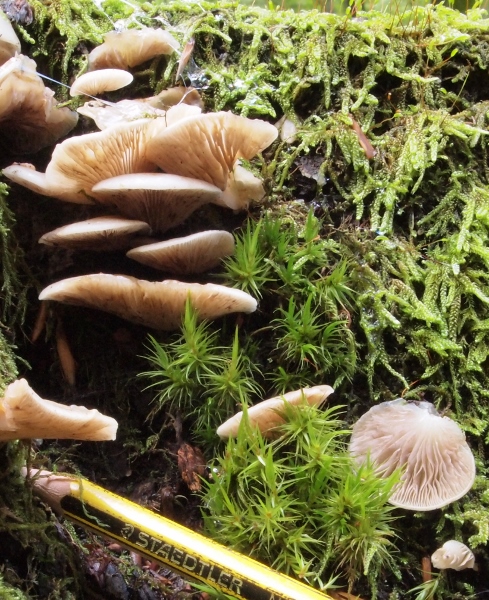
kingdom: Fungi
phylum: Basidiomycota
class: Agaricomycetes
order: Agaricales
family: Crepidotaceae
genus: Crepidotus
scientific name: Crepidotus mollis
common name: blød muslingesvamp
